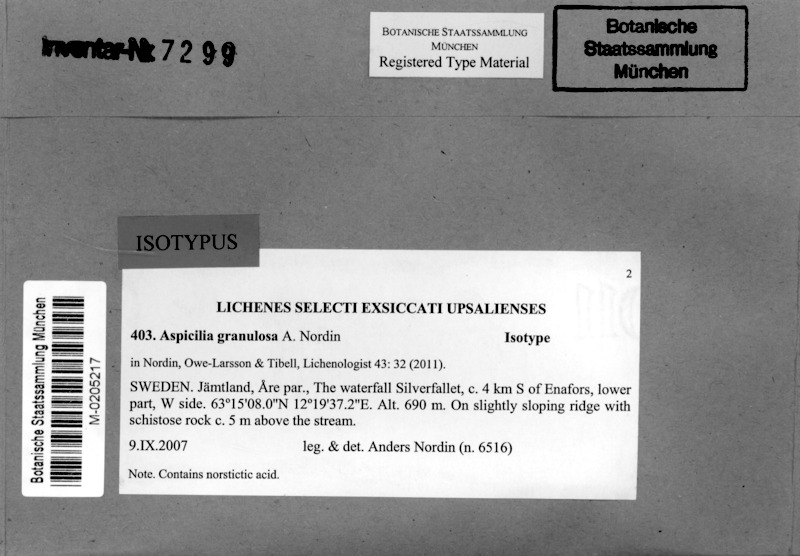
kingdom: Fungi
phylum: Ascomycota
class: Lecanoromycetes
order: Pertusariales
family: Megasporaceae
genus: Aspicilia
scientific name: Aspicilia granulosa
